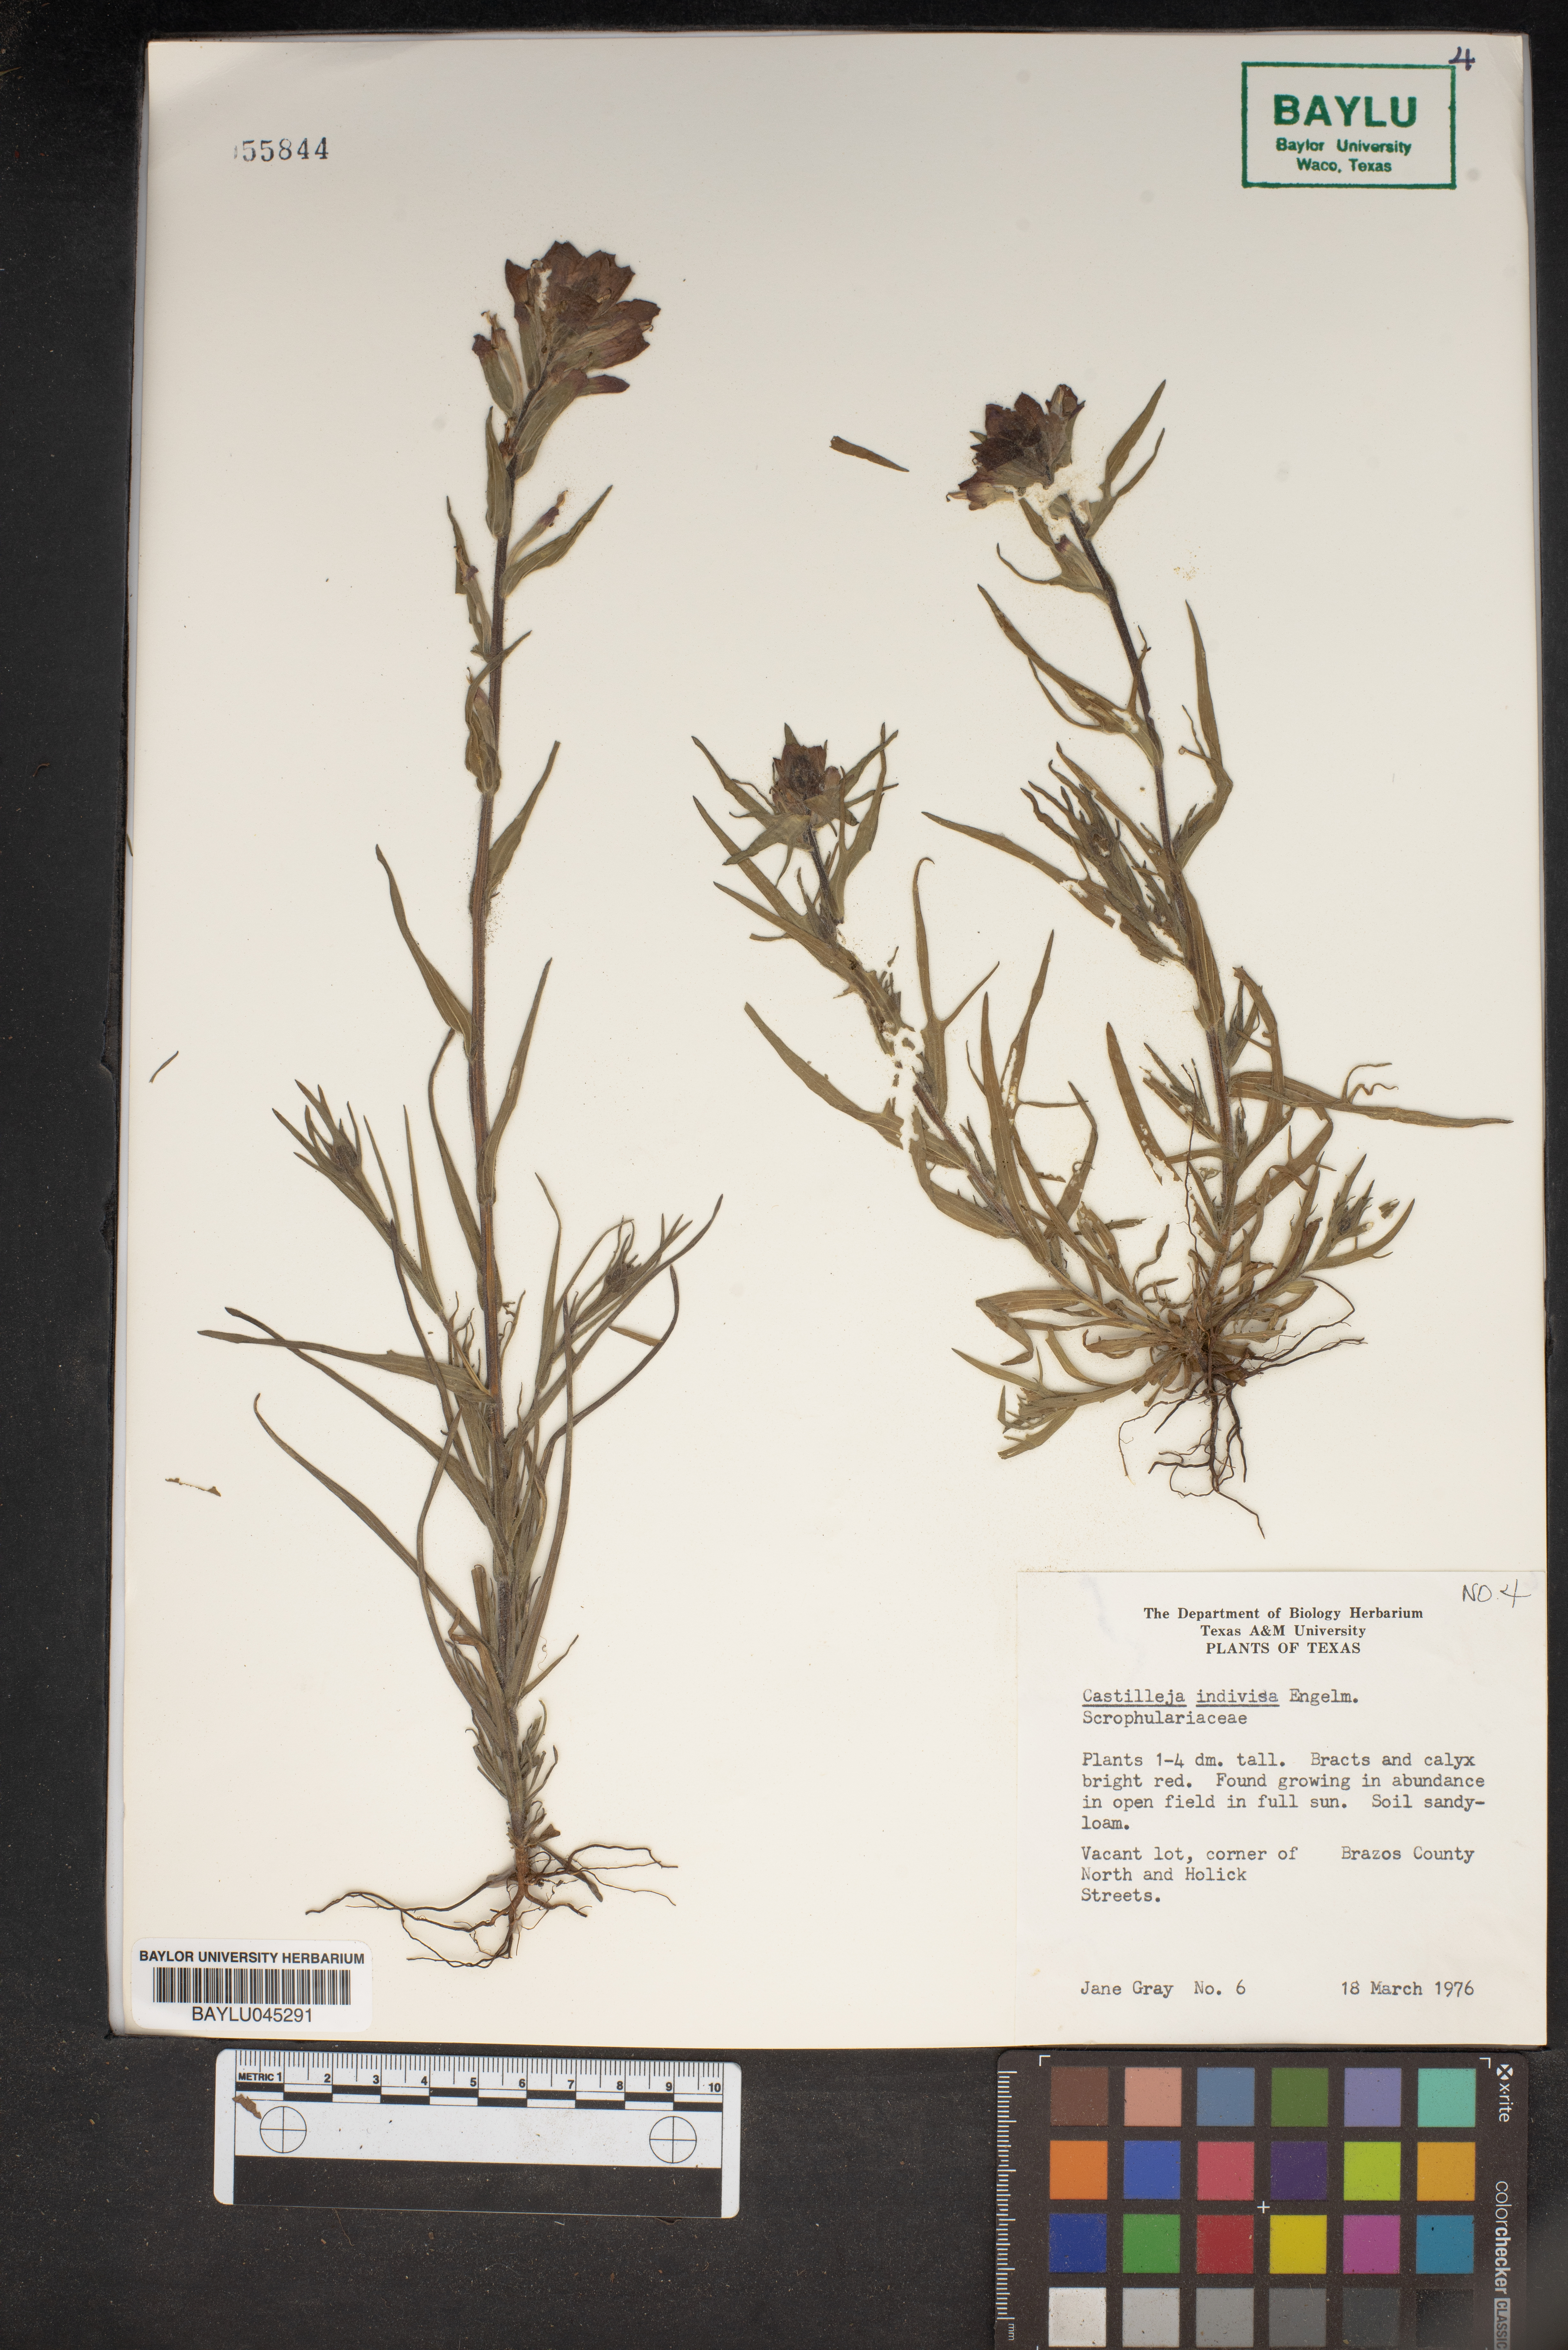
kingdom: Plantae
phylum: Tracheophyta
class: Magnoliopsida
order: Lamiales
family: Orobanchaceae
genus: Castilleja
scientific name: Castilleja indivisa
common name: Texas paintbrush
